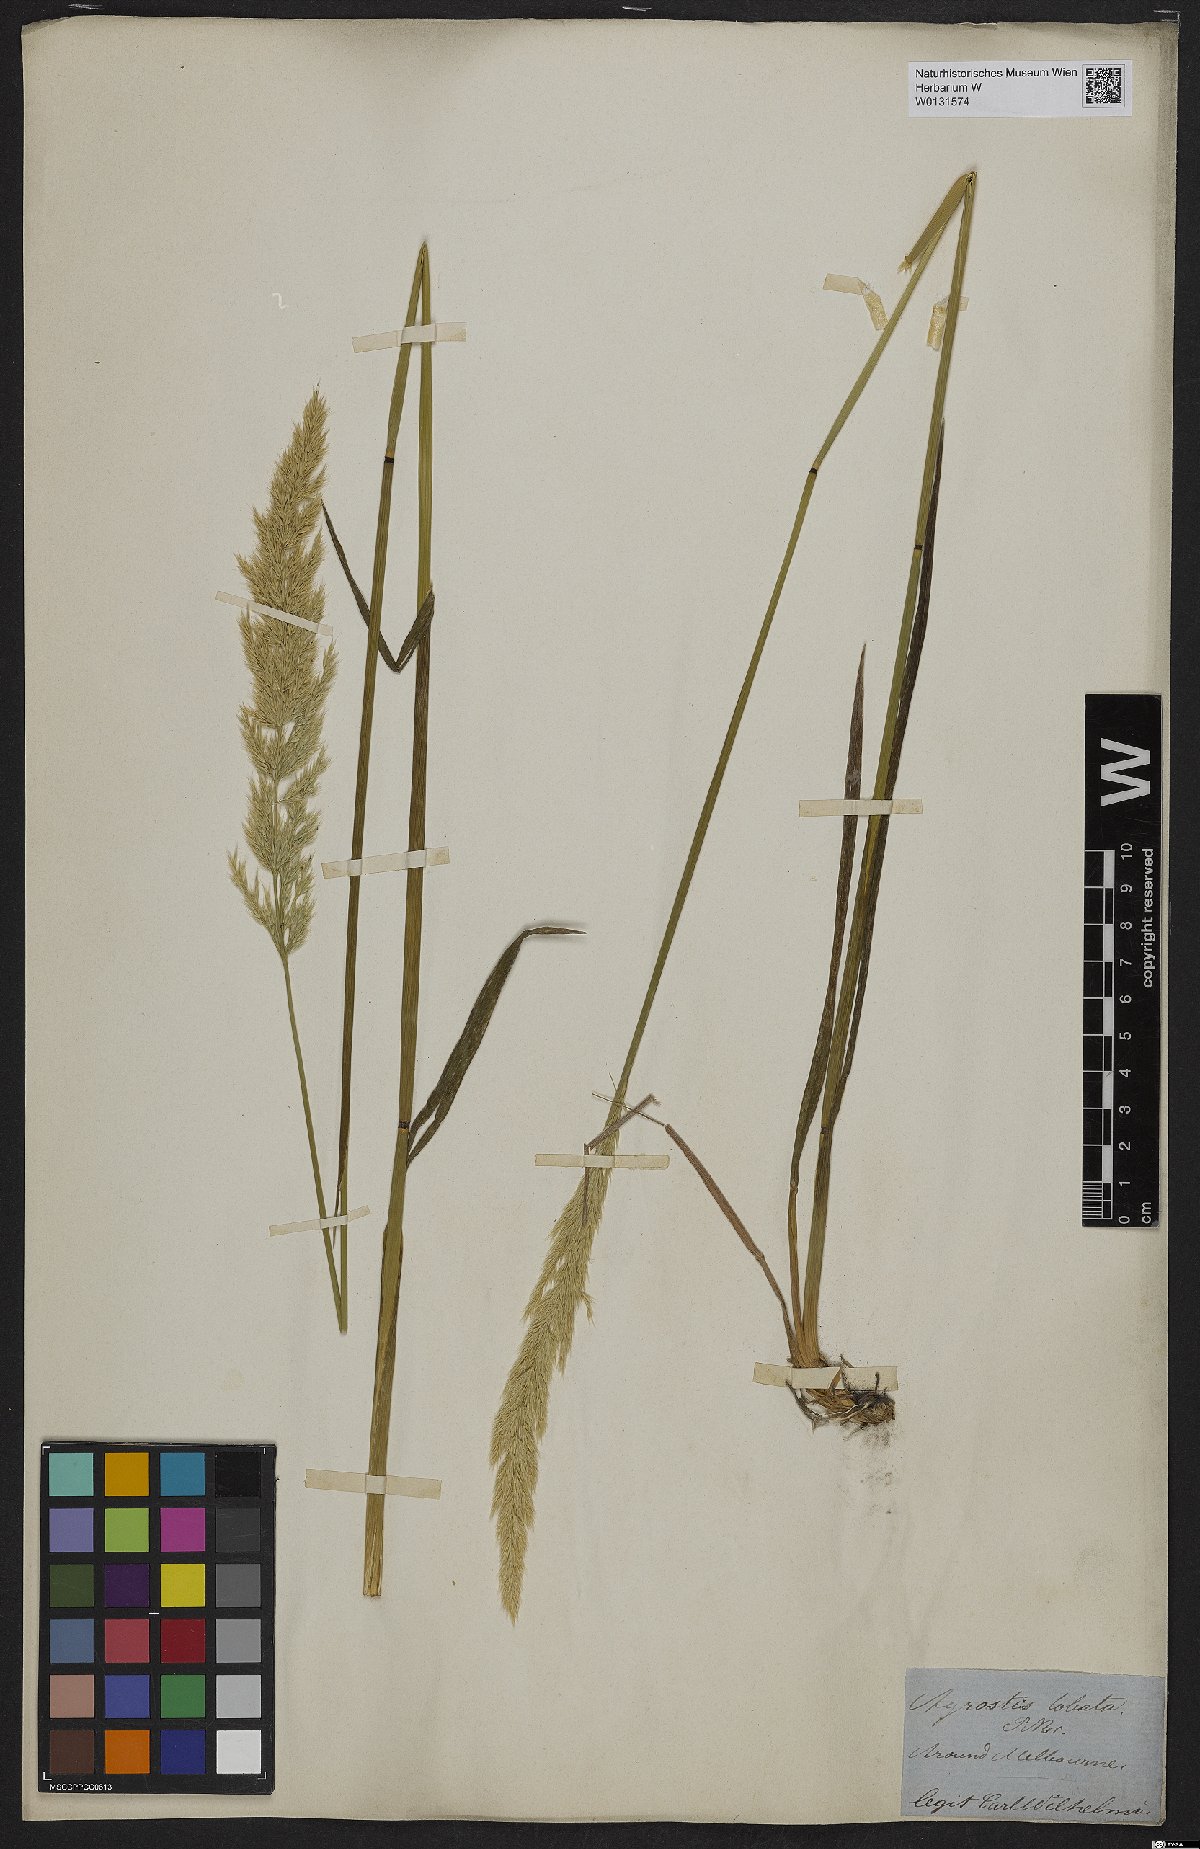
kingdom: Plantae
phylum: Tracheophyta
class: Liliopsida
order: Poales
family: Poaceae
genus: Calamagrostis
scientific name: Calamagrostis quadriseta
